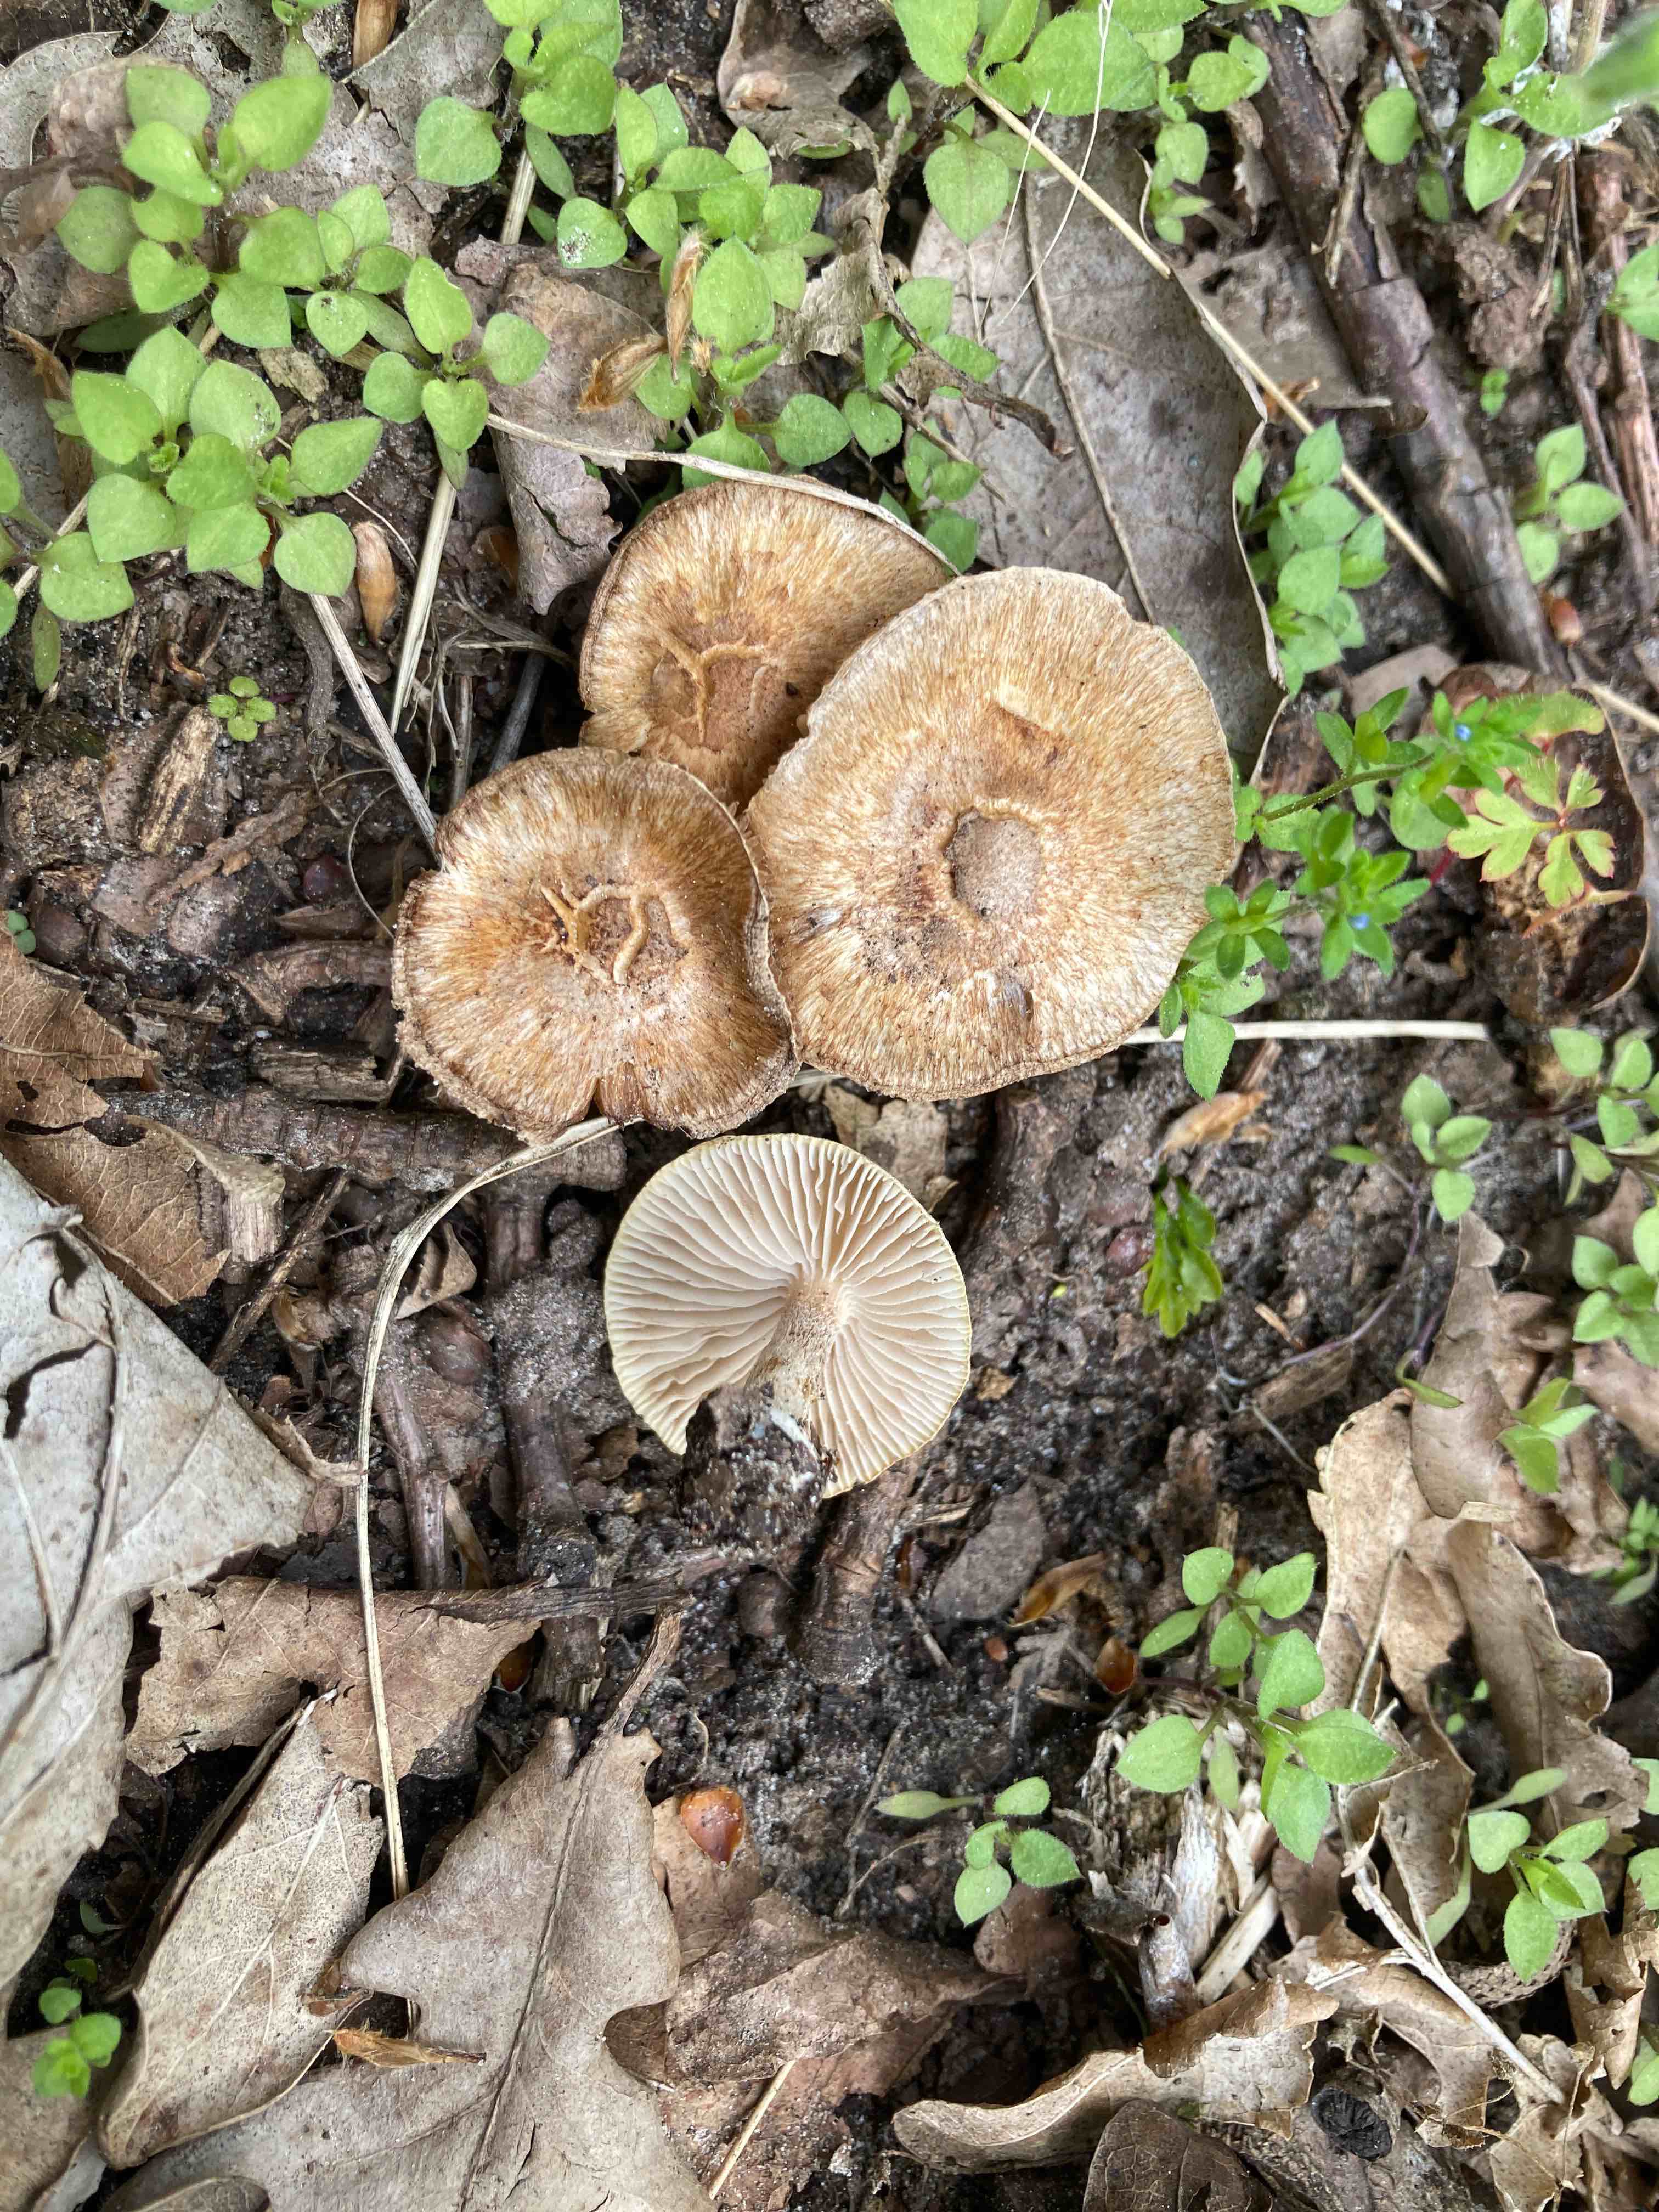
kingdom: Fungi
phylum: Basidiomycota
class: Agaricomycetes
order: Agaricales
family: Inocybaceae
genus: Inocybe
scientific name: Inocybe semifulva
